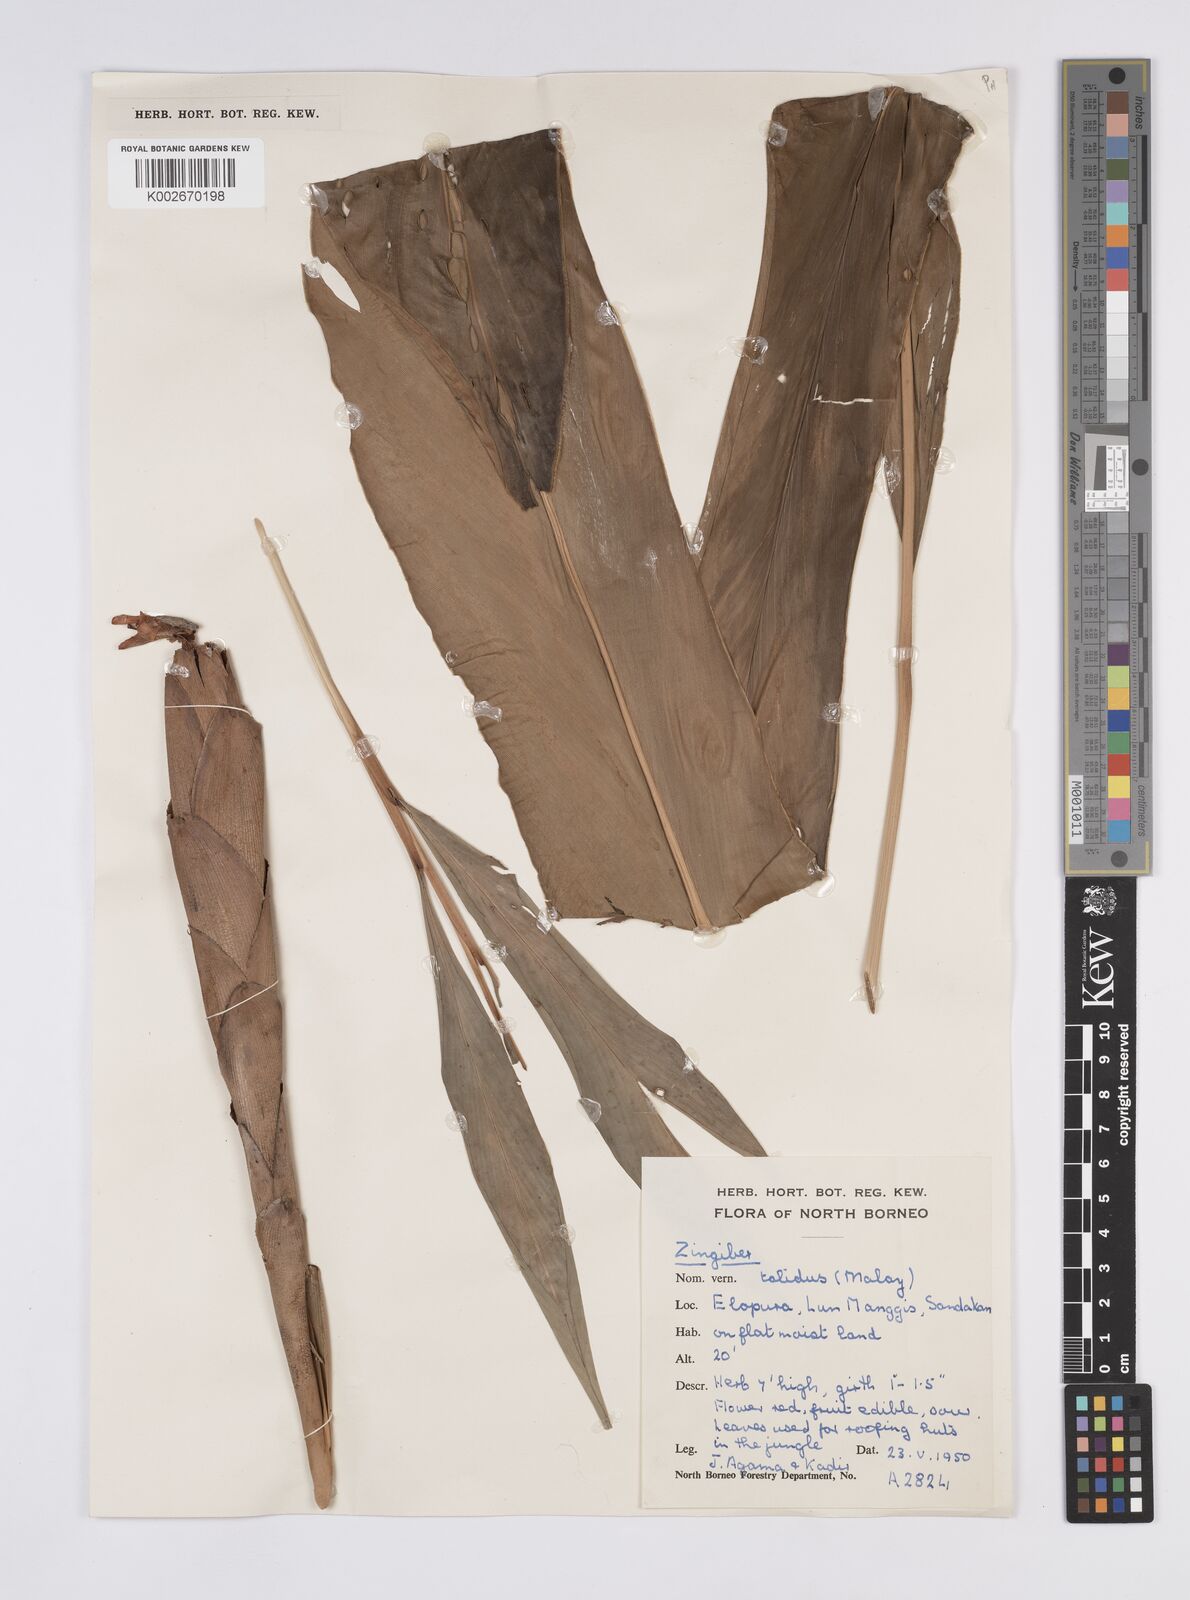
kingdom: Plantae
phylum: Tracheophyta
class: Liliopsida
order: Zingiberales
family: Zingiberaceae
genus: Hornstedtia
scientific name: Hornstedtia havilandii
